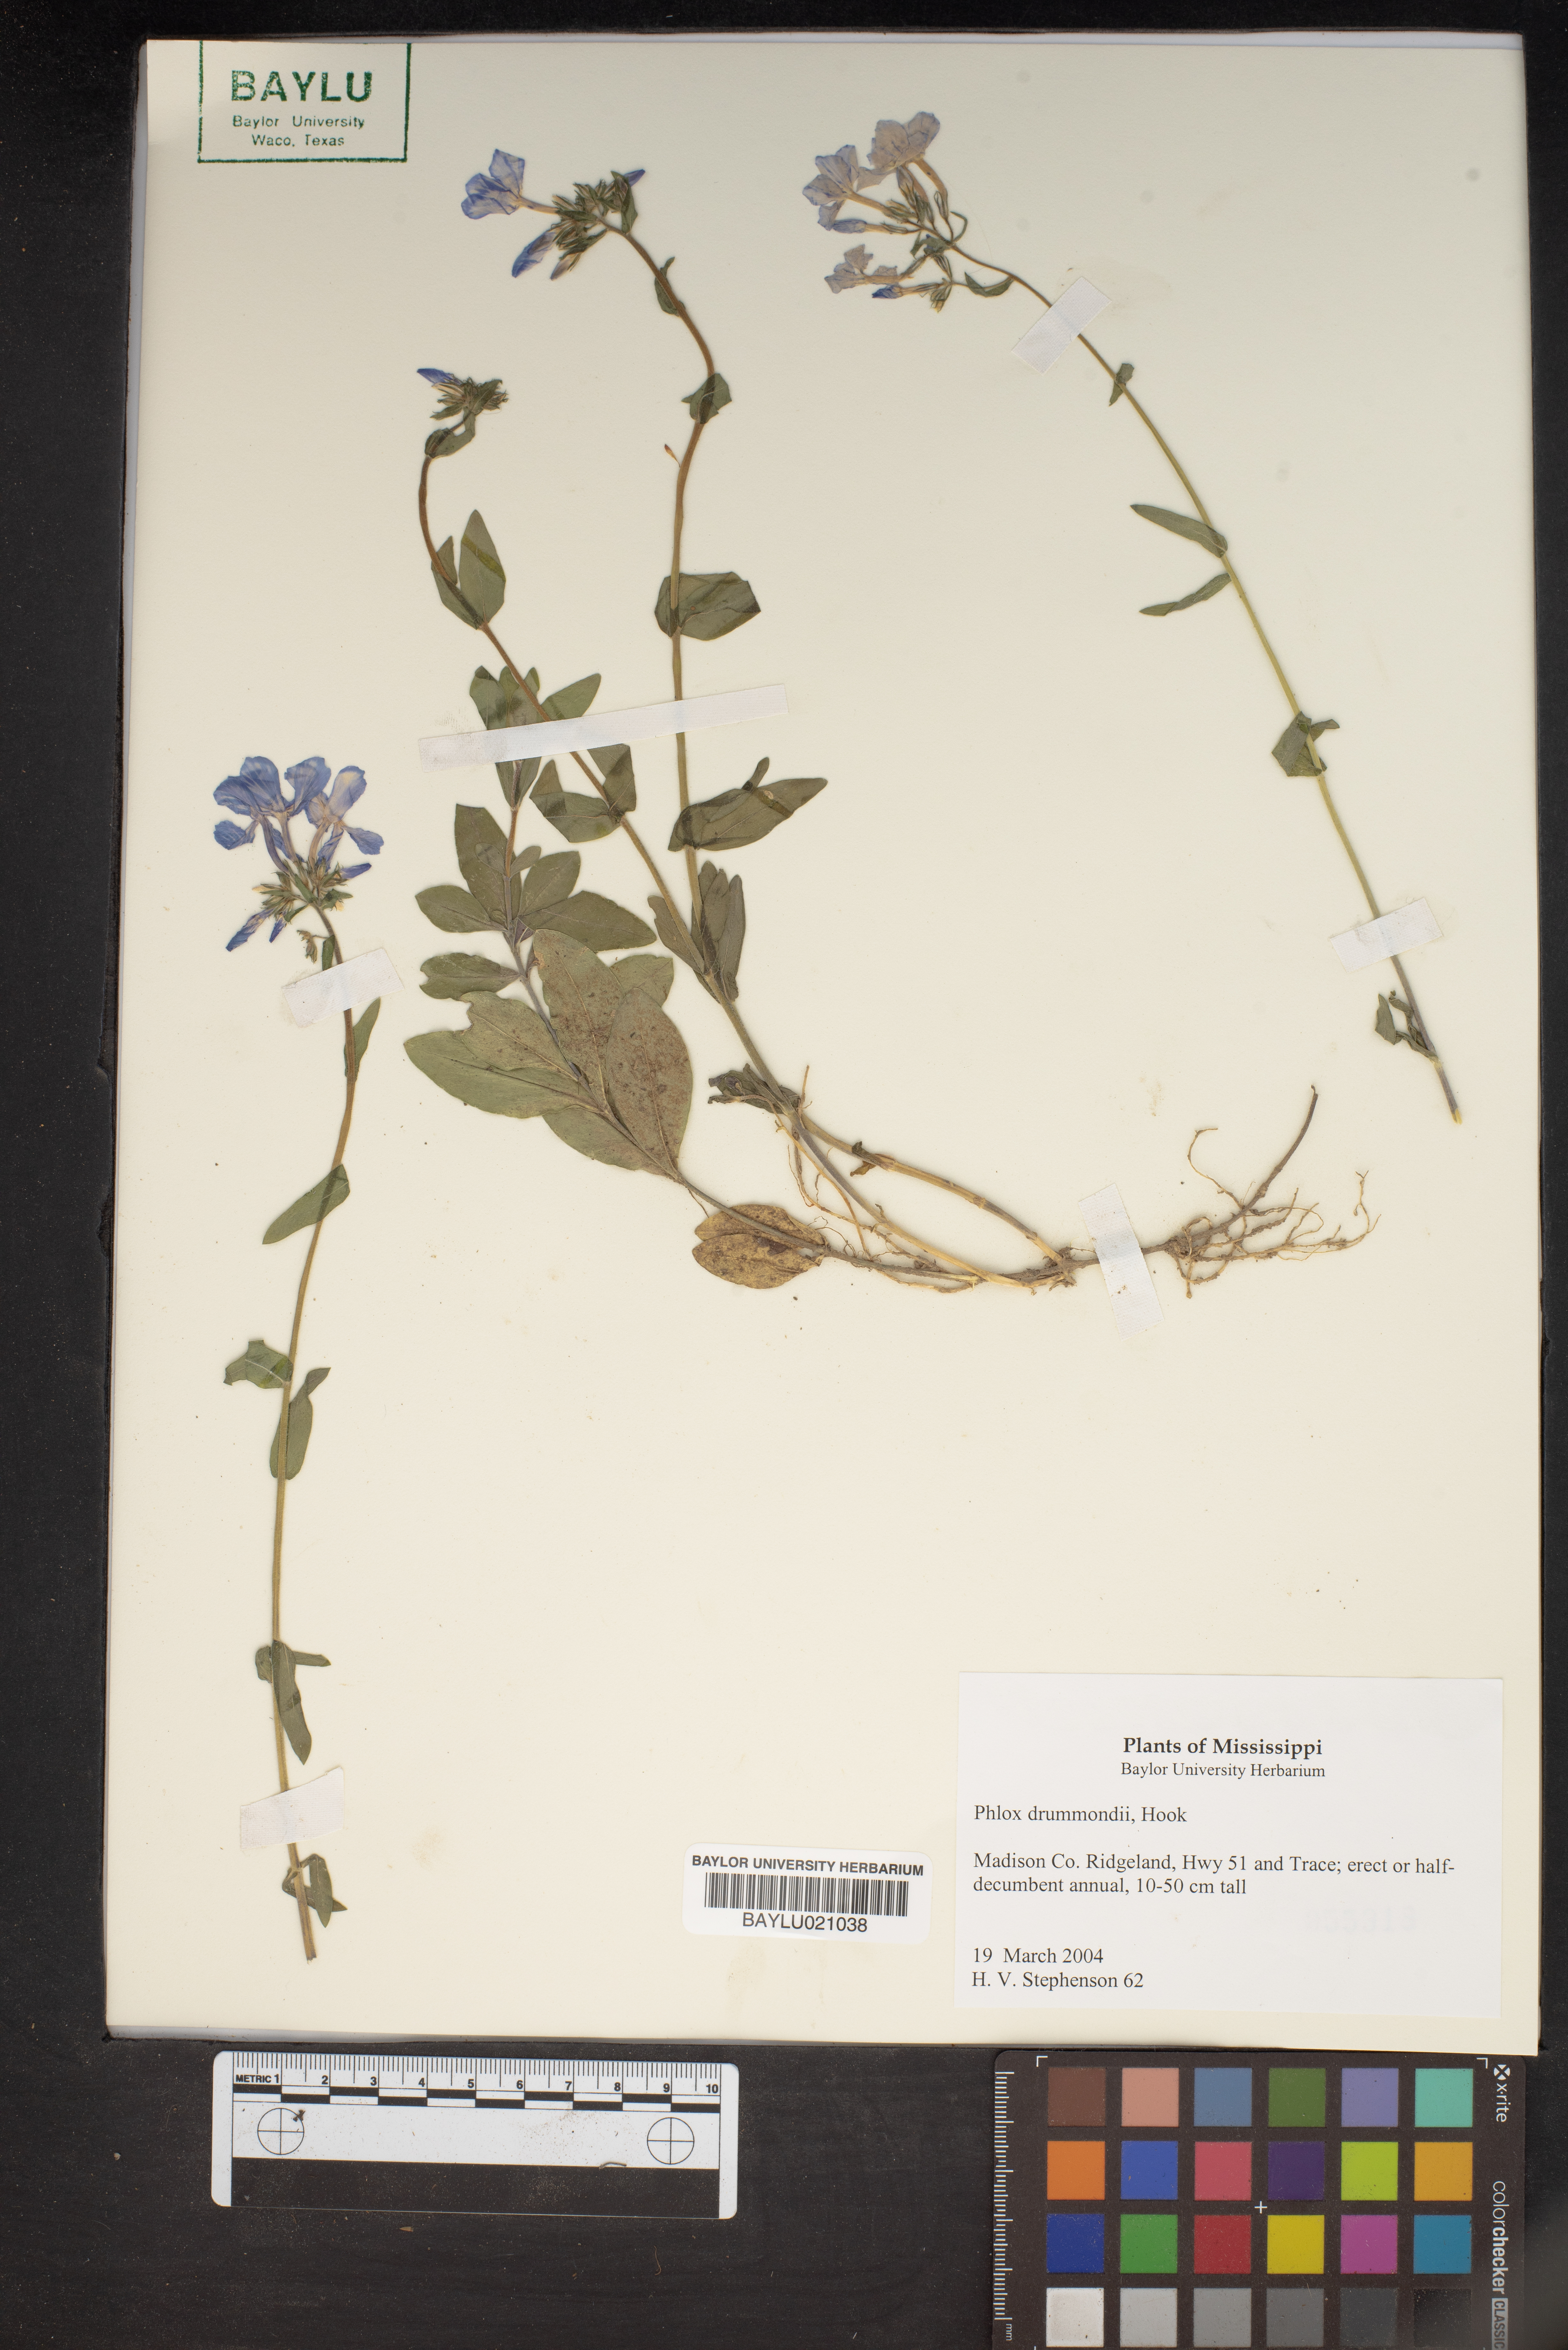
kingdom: Plantae
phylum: Tracheophyta
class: Magnoliopsida
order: Ericales
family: Polemoniaceae
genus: Phlox
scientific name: Phlox drummondii
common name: Drummond's phlox
